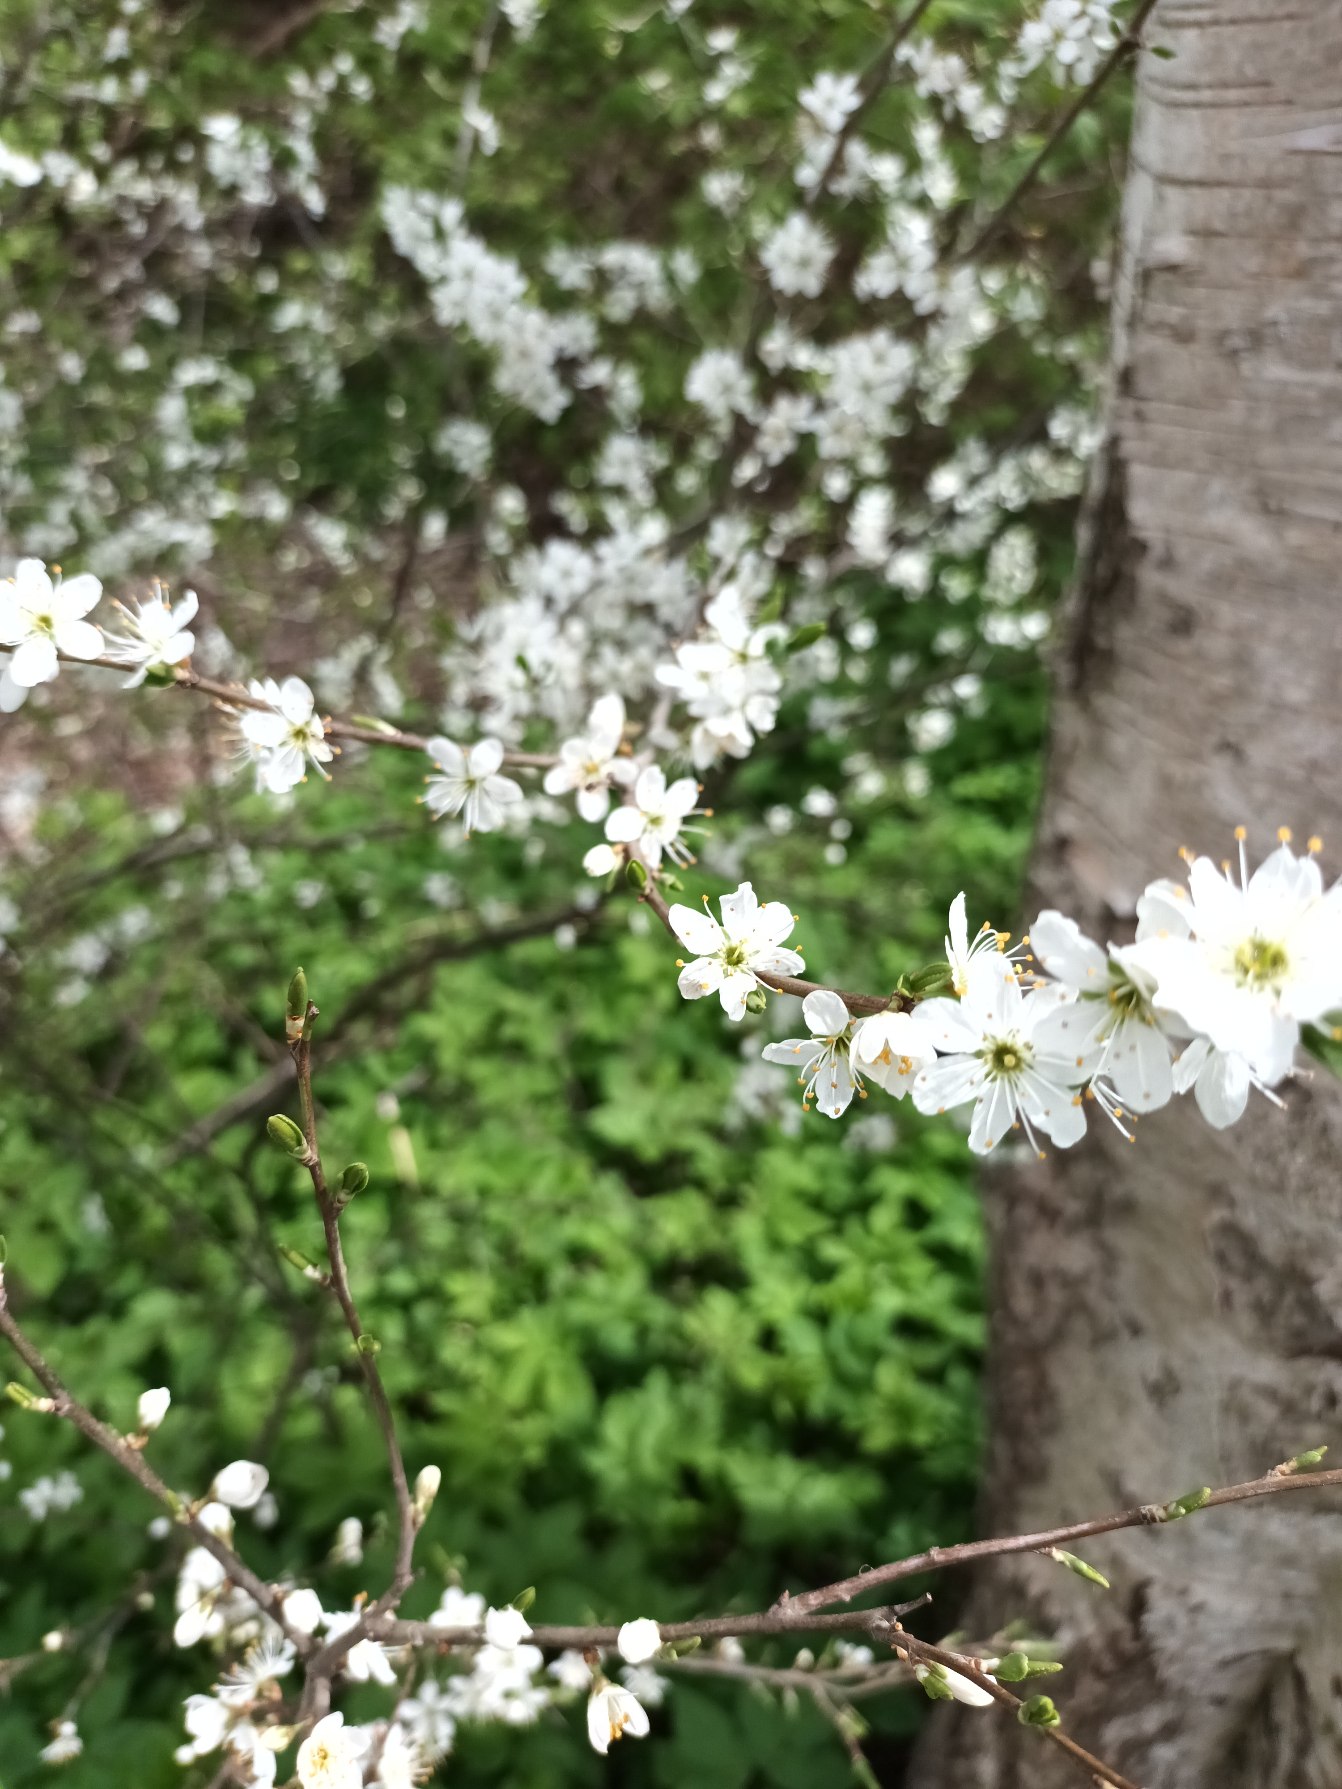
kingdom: Plantae
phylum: Tracheophyta
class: Magnoliopsida
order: Rosales
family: Rosaceae
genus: Prunus
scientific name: Prunus spinosa
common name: Slåen
